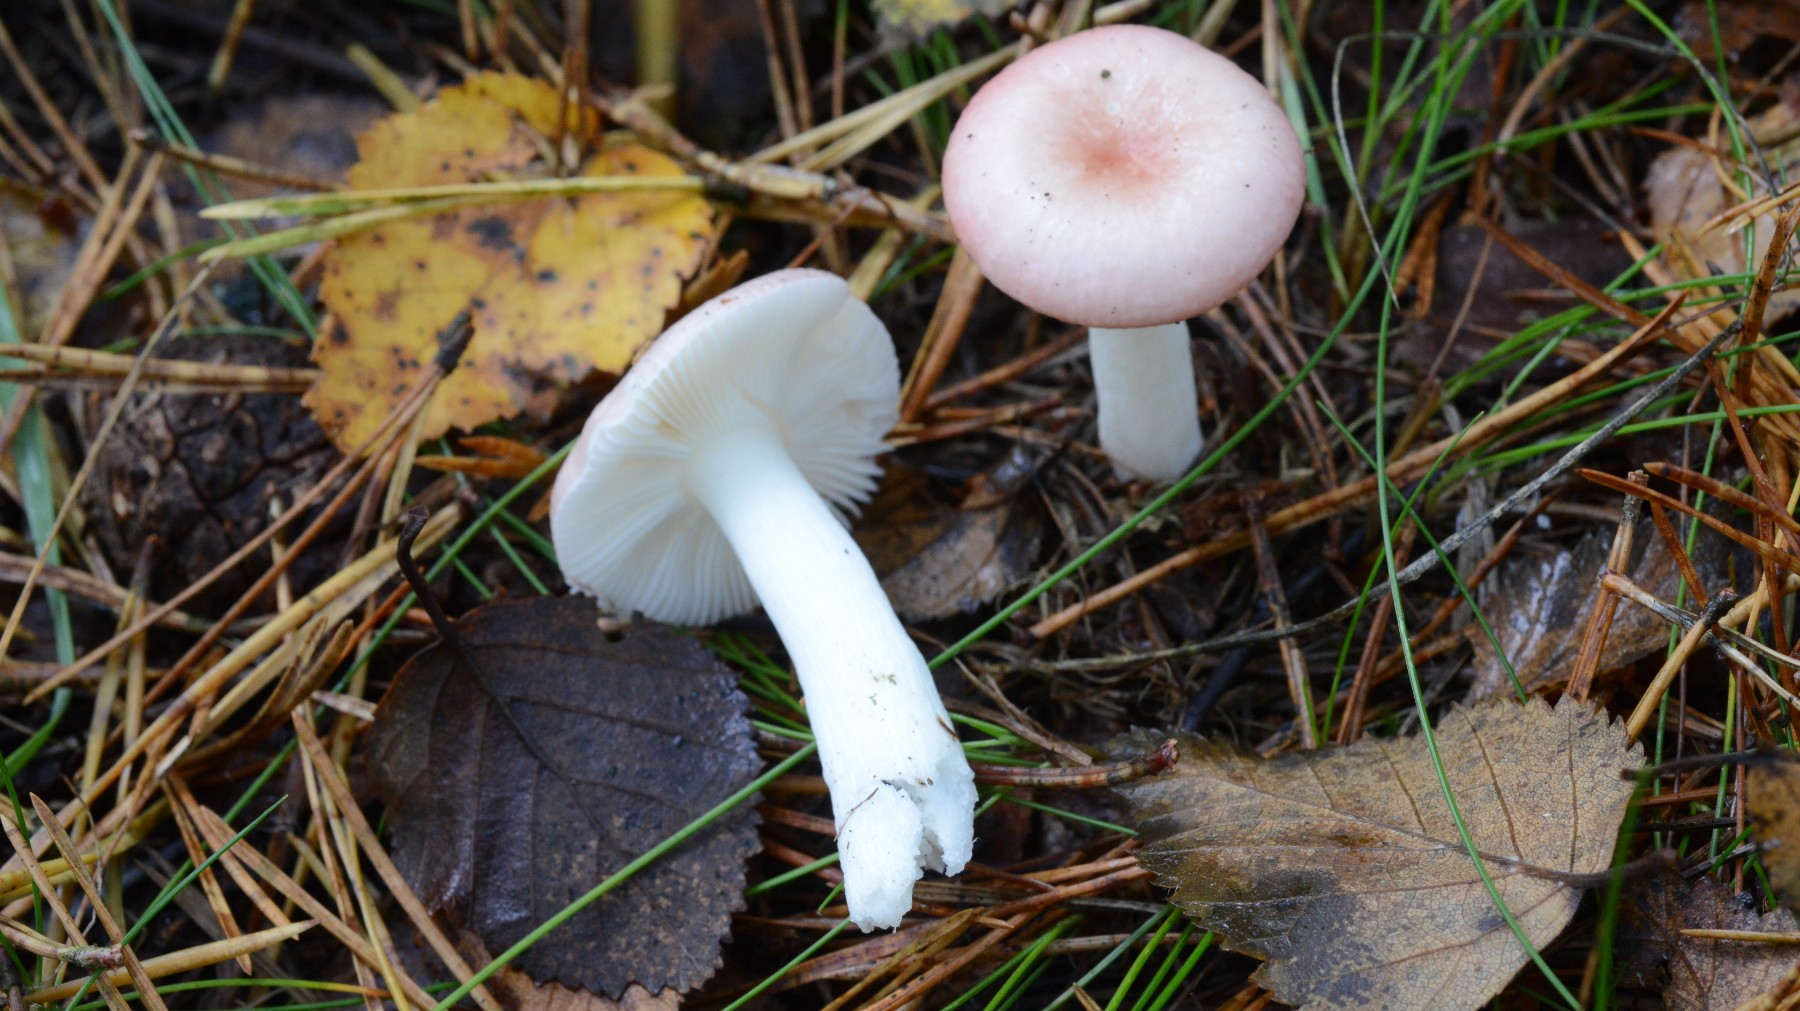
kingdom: Fungi
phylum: Basidiomycota
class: Agaricomycetes
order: Russulales
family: Russulaceae
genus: Russula
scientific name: Russula betularum
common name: bleg gift-skørhat
